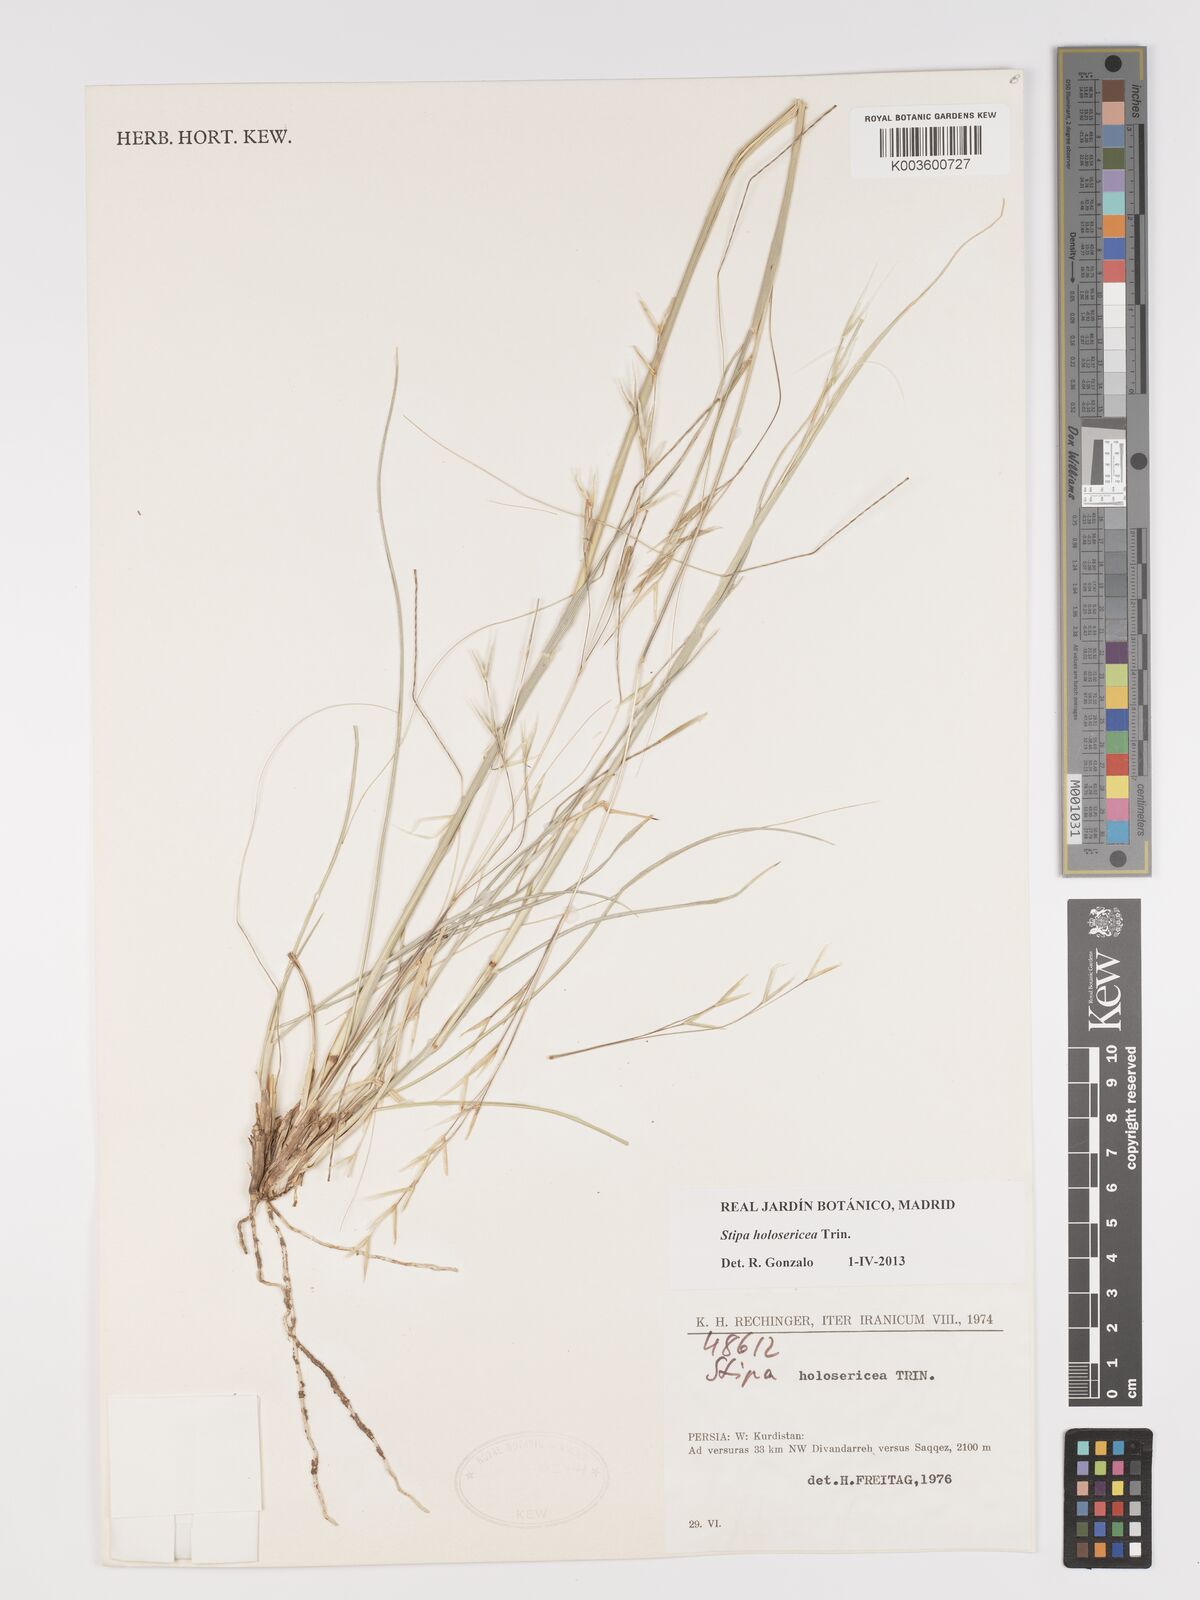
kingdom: Plantae
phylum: Tracheophyta
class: Liliopsida
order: Poales
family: Poaceae
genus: Stipa
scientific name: Stipa holosericea
